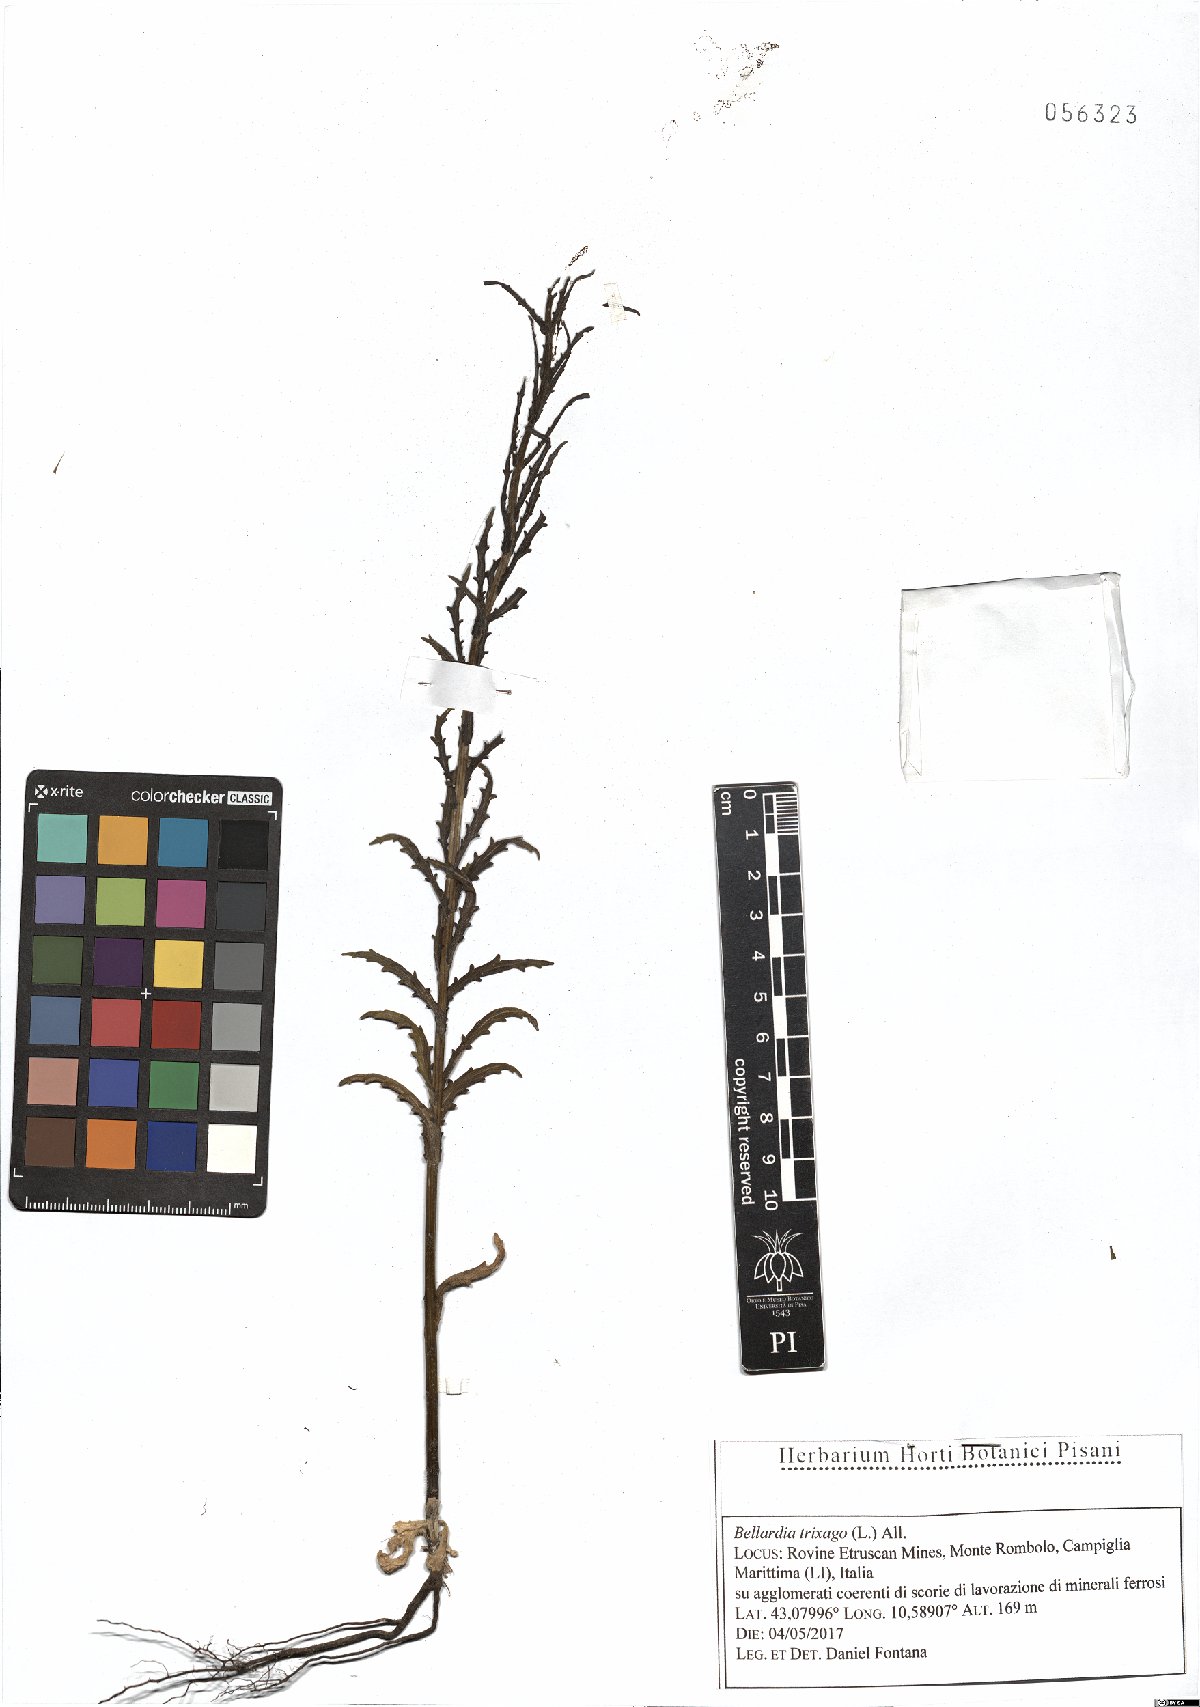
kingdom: Plantae
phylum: Tracheophyta
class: Magnoliopsida
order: Lamiales
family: Orobanchaceae
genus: Bellardia
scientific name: Bellardia trixago
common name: Mediterranean lineseed
